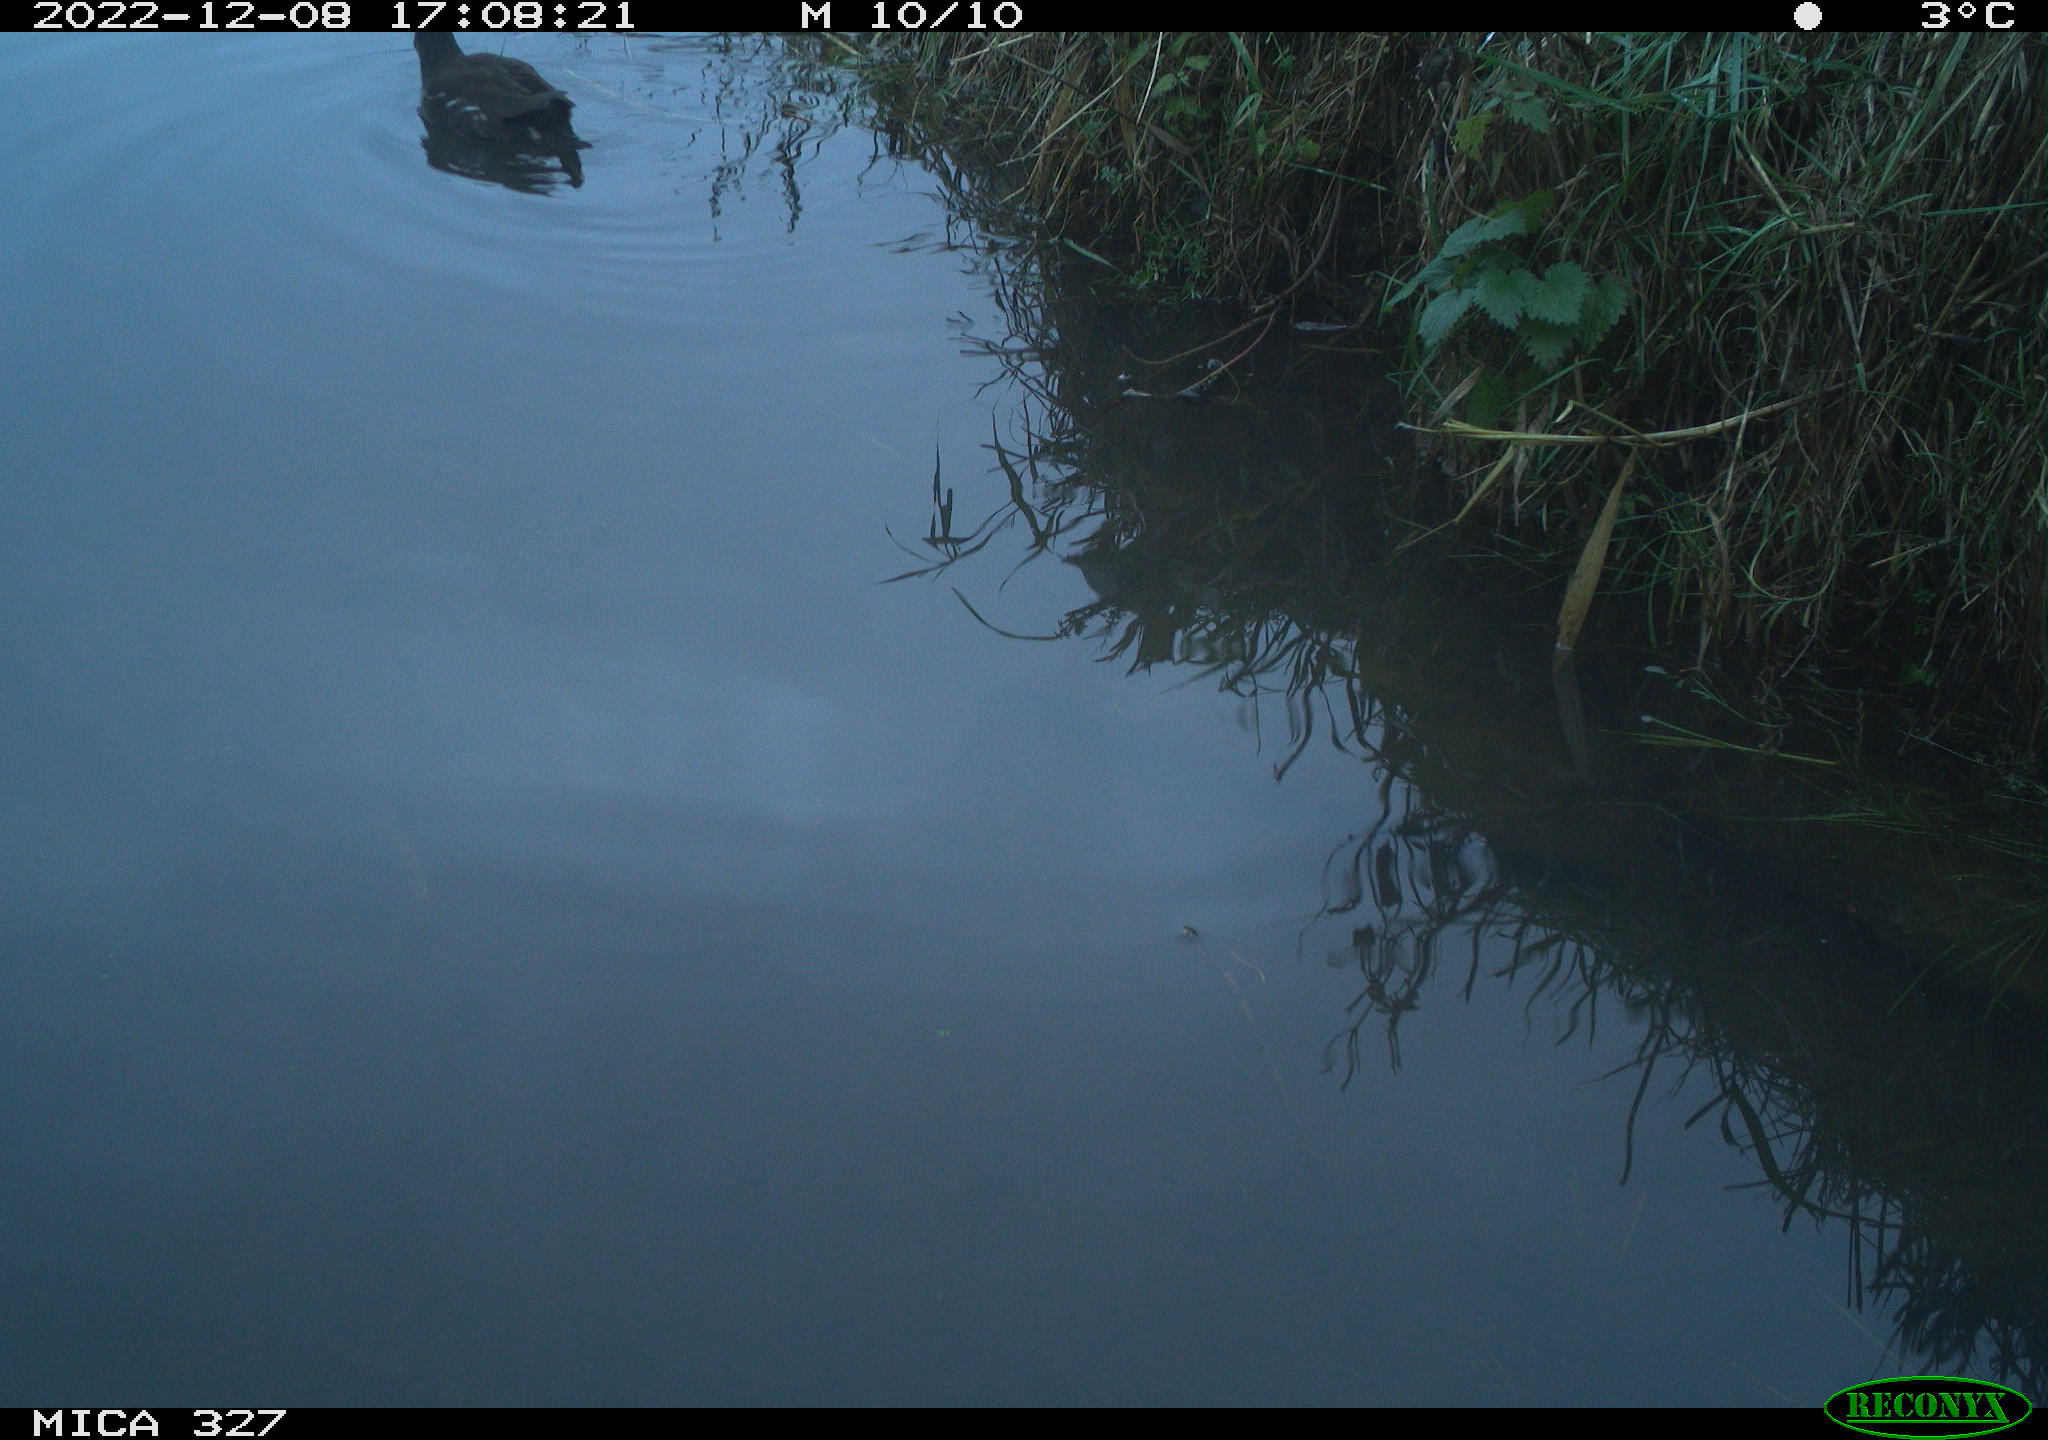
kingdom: Animalia
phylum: Chordata
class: Aves
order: Gruiformes
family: Rallidae
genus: Gallinula
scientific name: Gallinula chloropus
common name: Common moorhen
